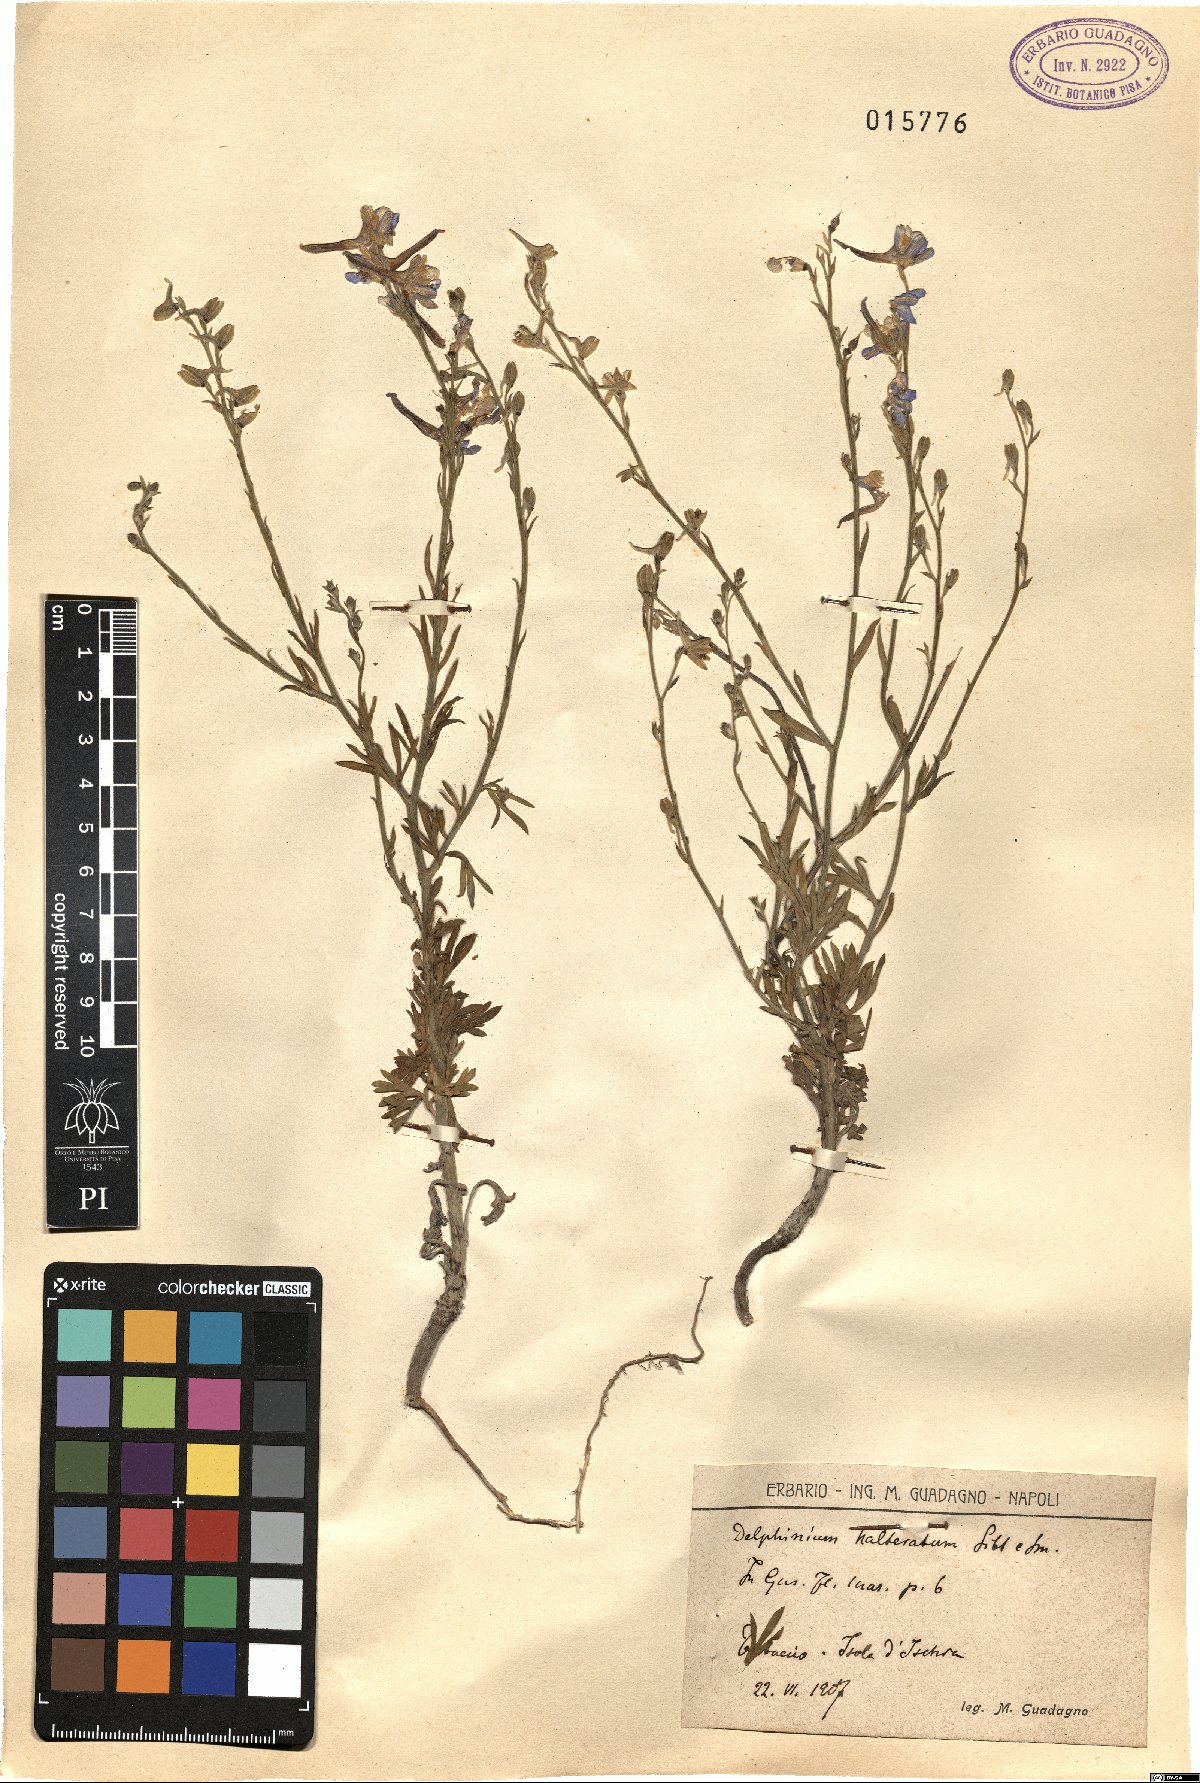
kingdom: Plantae
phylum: Tracheophyta
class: Magnoliopsida
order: Ranunculales
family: Ranunculaceae
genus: Delphinium
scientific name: Delphinium halteratum
